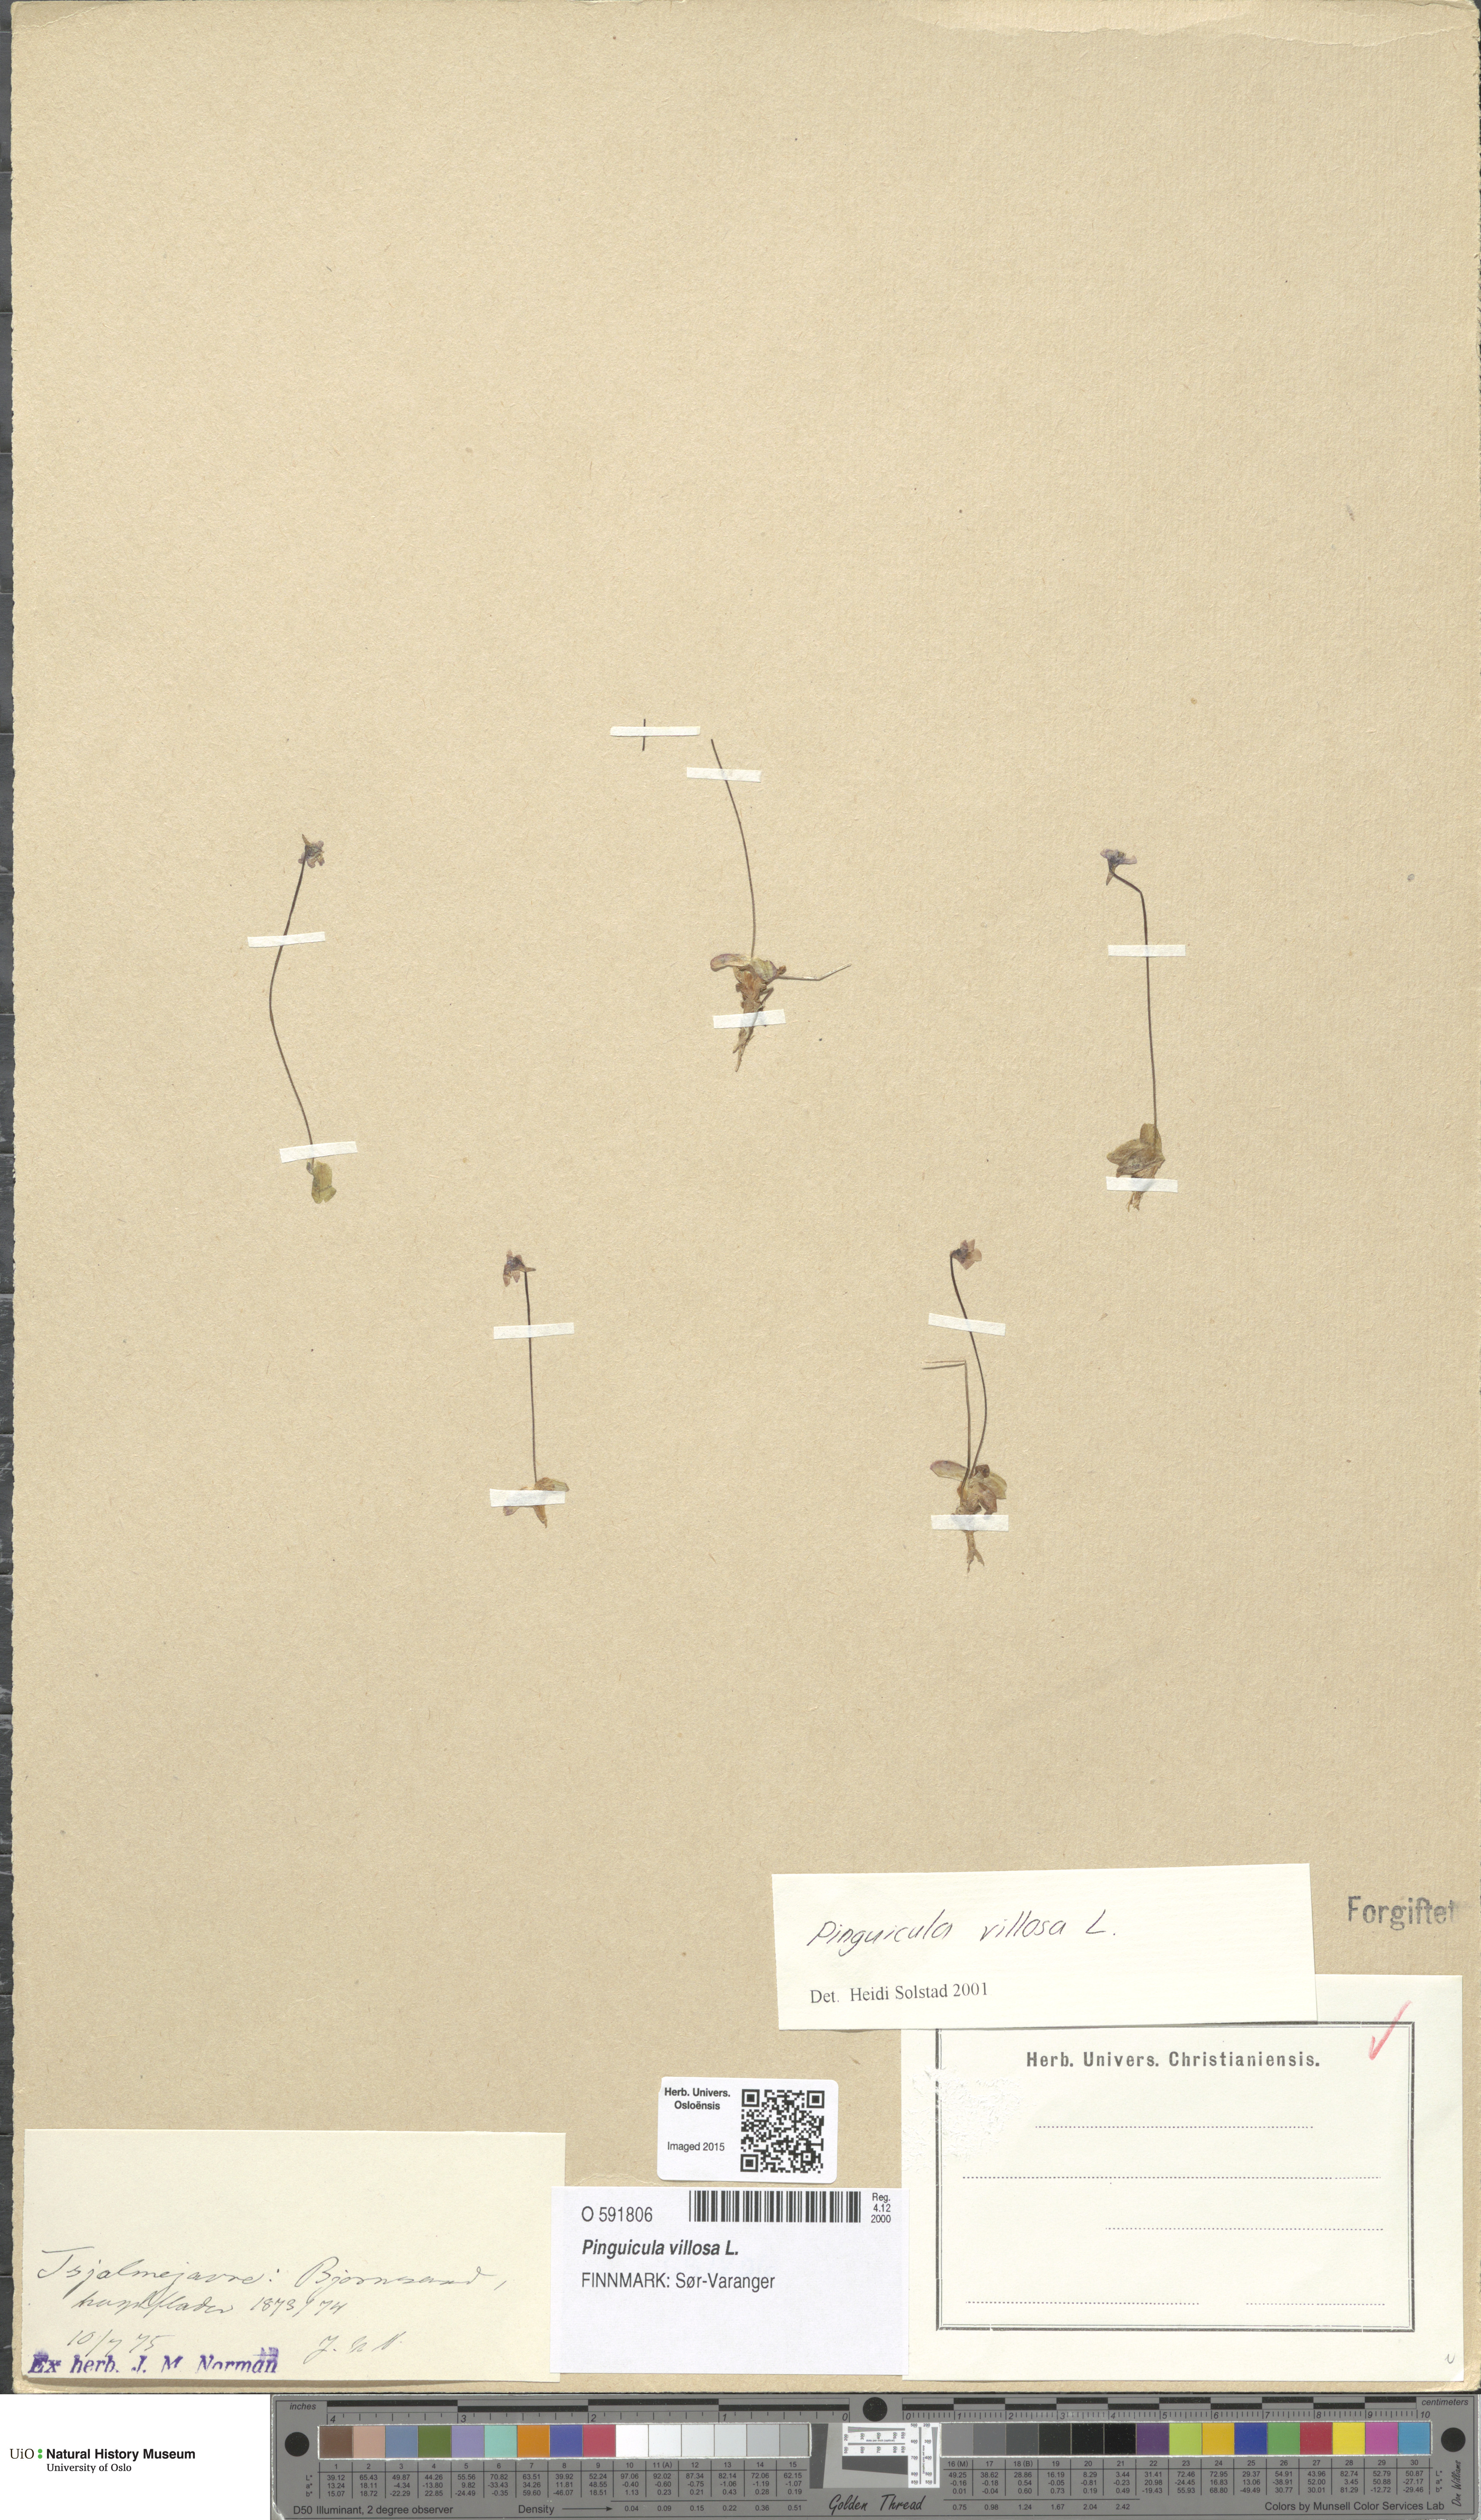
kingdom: Plantae
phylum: Tracheophyta
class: Magnoliopsida
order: Lamiales
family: Lentibulariaceae
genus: Pinguicula
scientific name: Pinguicula villosa
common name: Hairy butterwort
